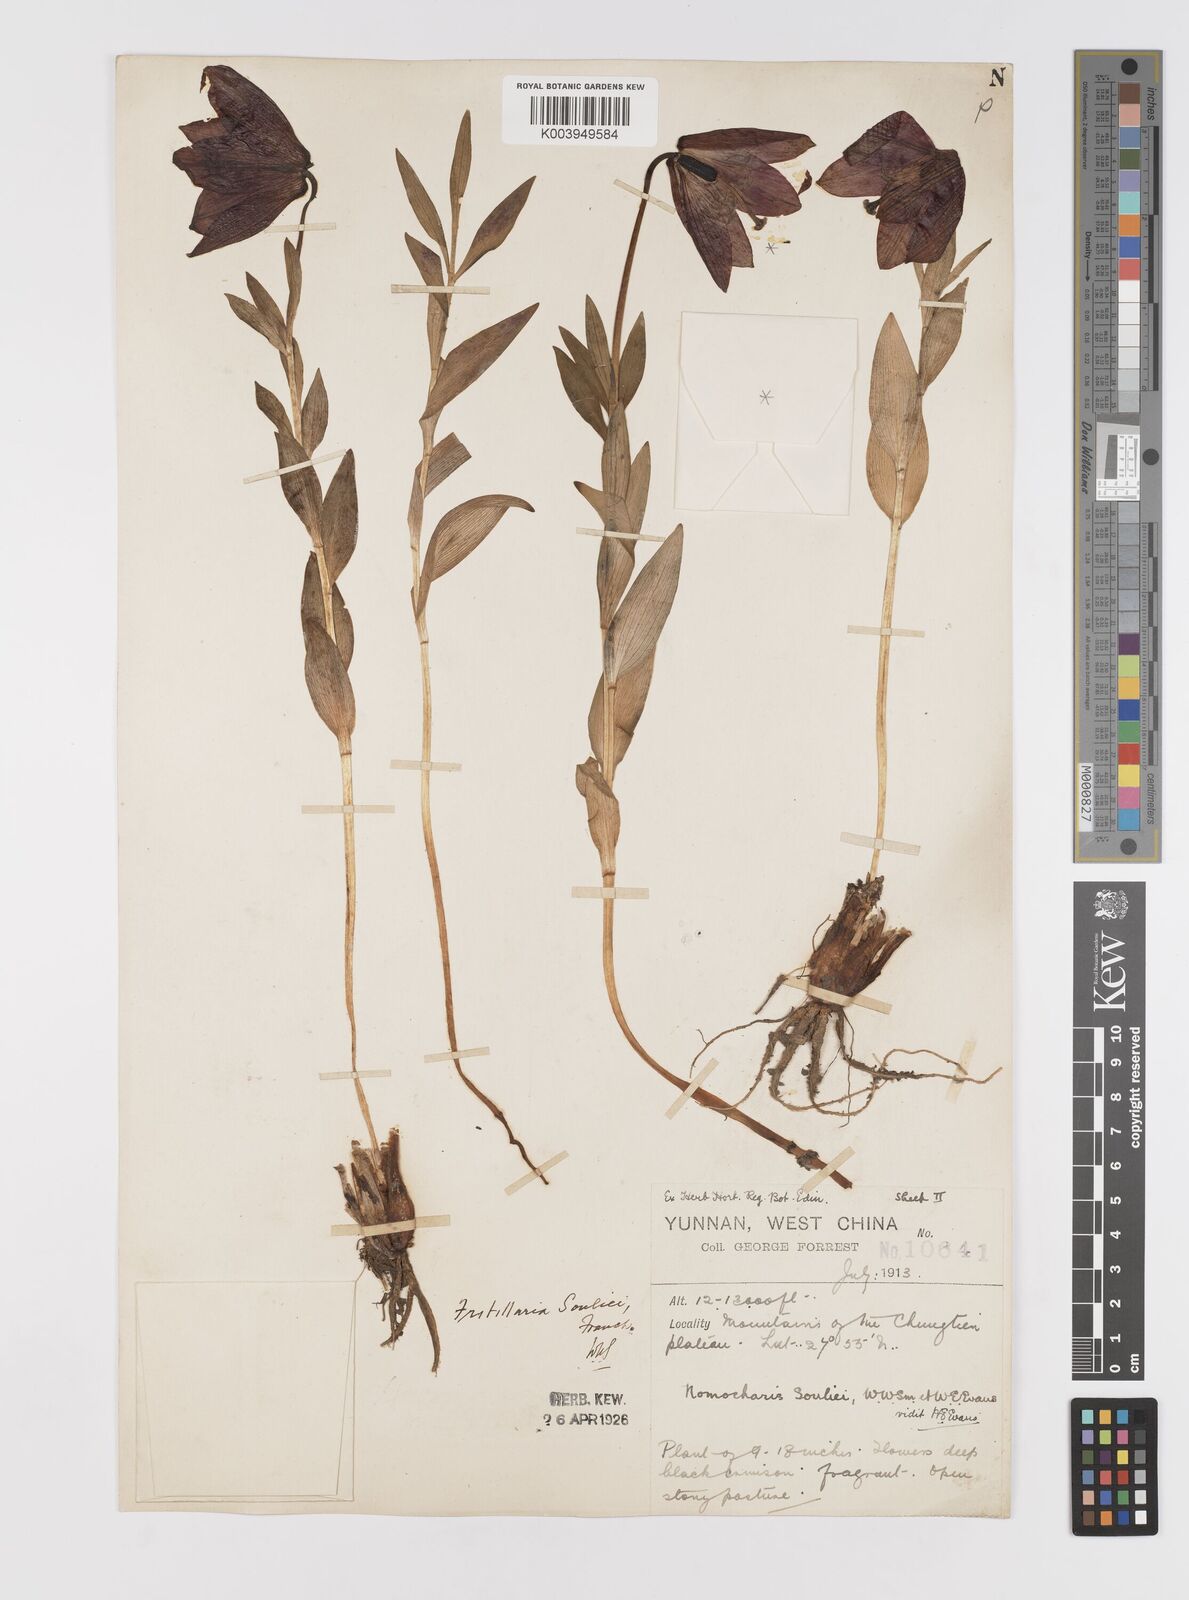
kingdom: Plantae
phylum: Tracheophyta
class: Liliopsida
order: Liliales
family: Liliaceae
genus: Lilium
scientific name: Lilium souliei
